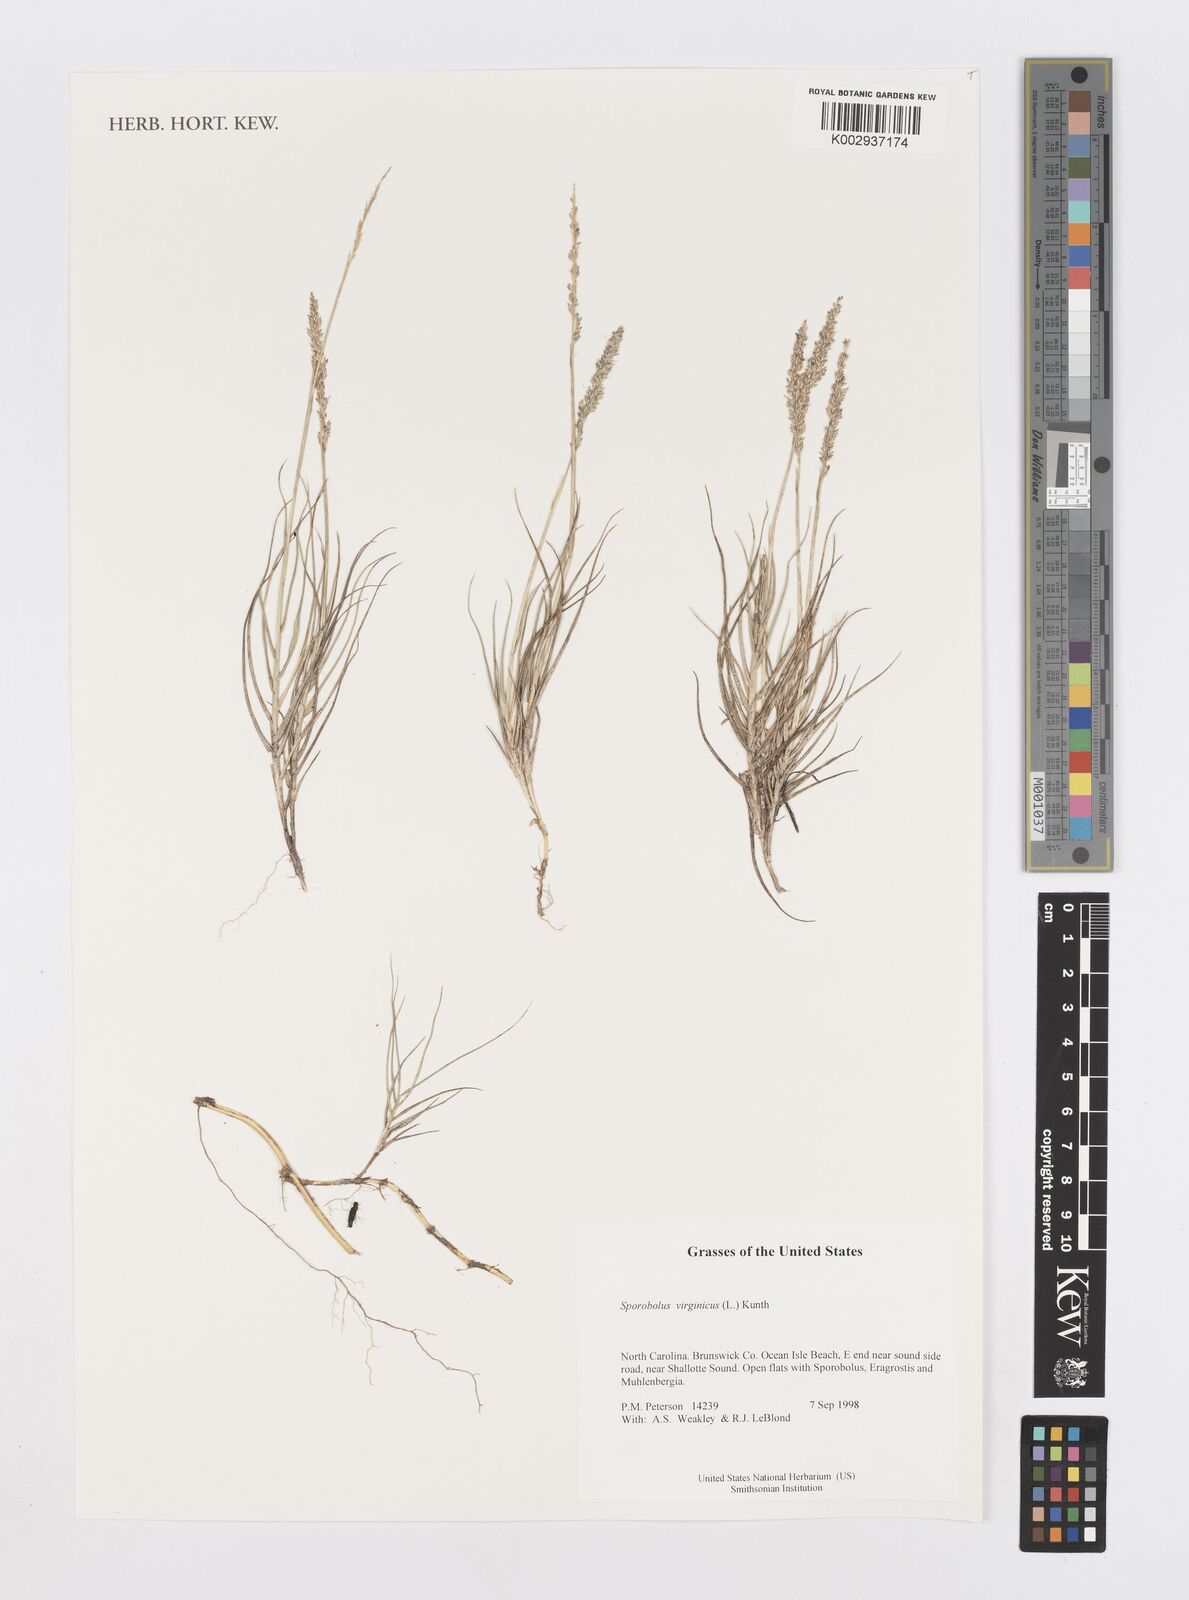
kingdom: Plantae
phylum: Tracheophyta
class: Liliopsida
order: Poales
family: Poaceae
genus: Sporobolus
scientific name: Sporobolus virginicus
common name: Beach dropseed
